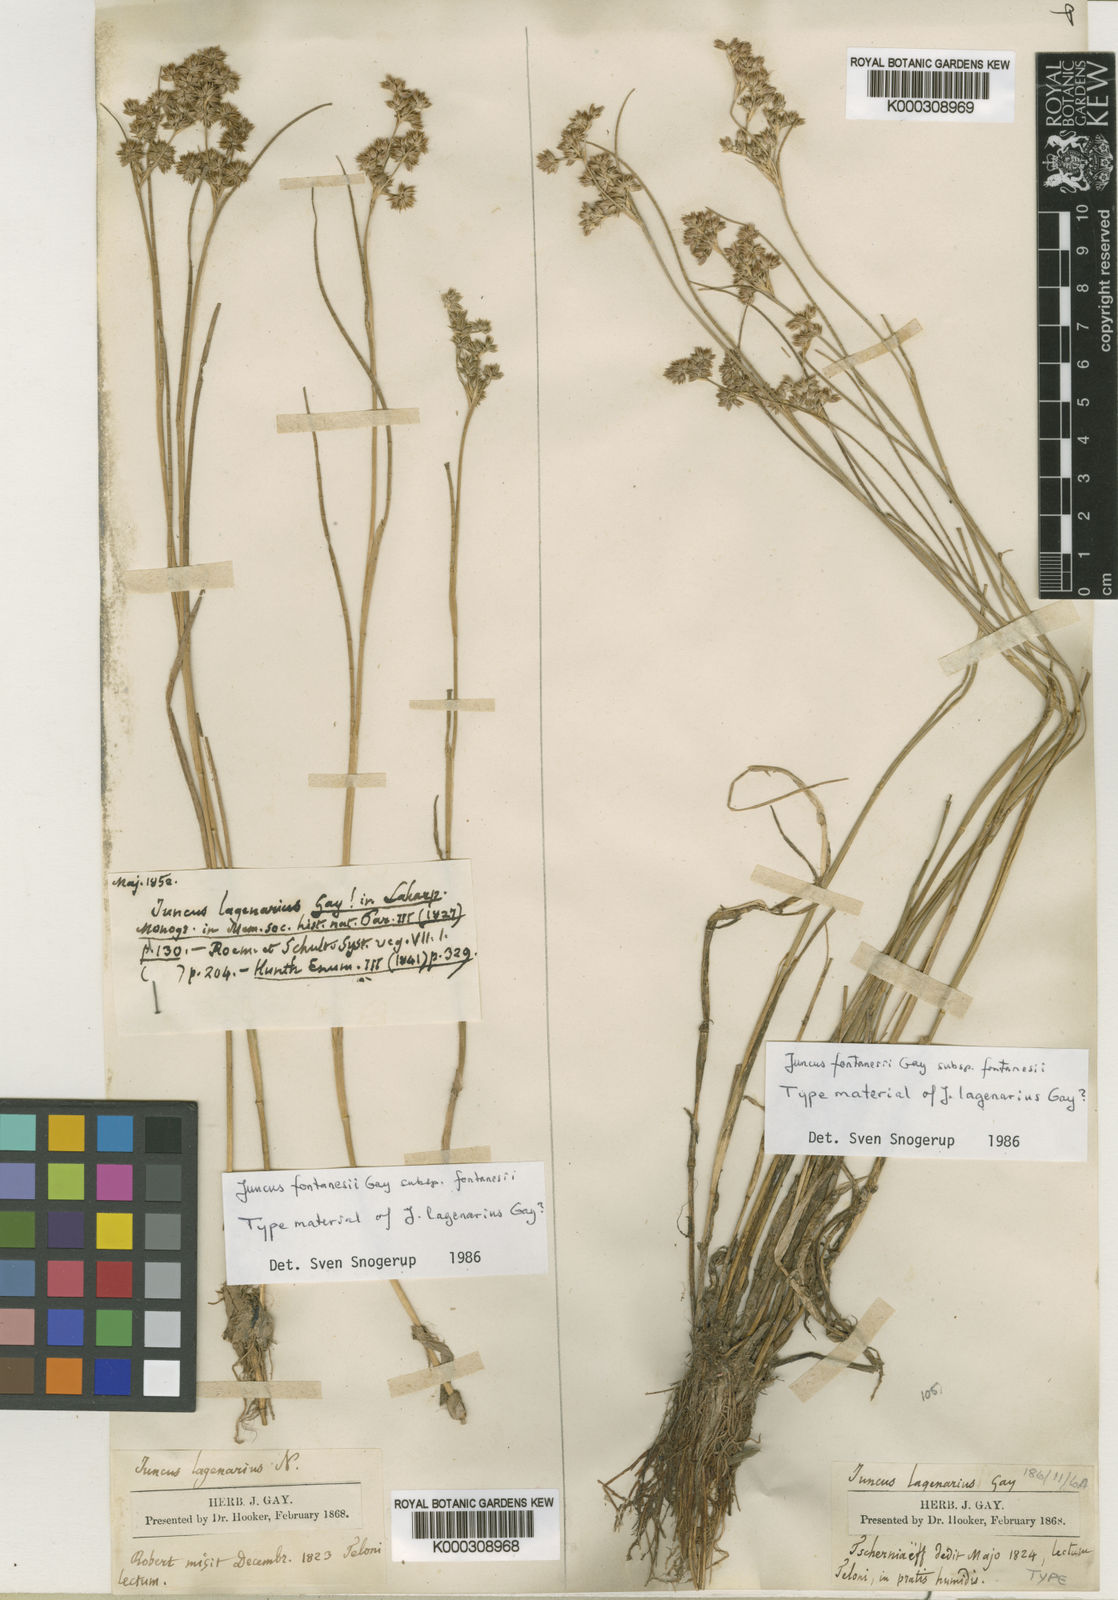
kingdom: Plantae
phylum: Tracheophyta
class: Liliopsida
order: Poales
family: Juncaceae
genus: Juncus
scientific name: Juncus fontanesii
